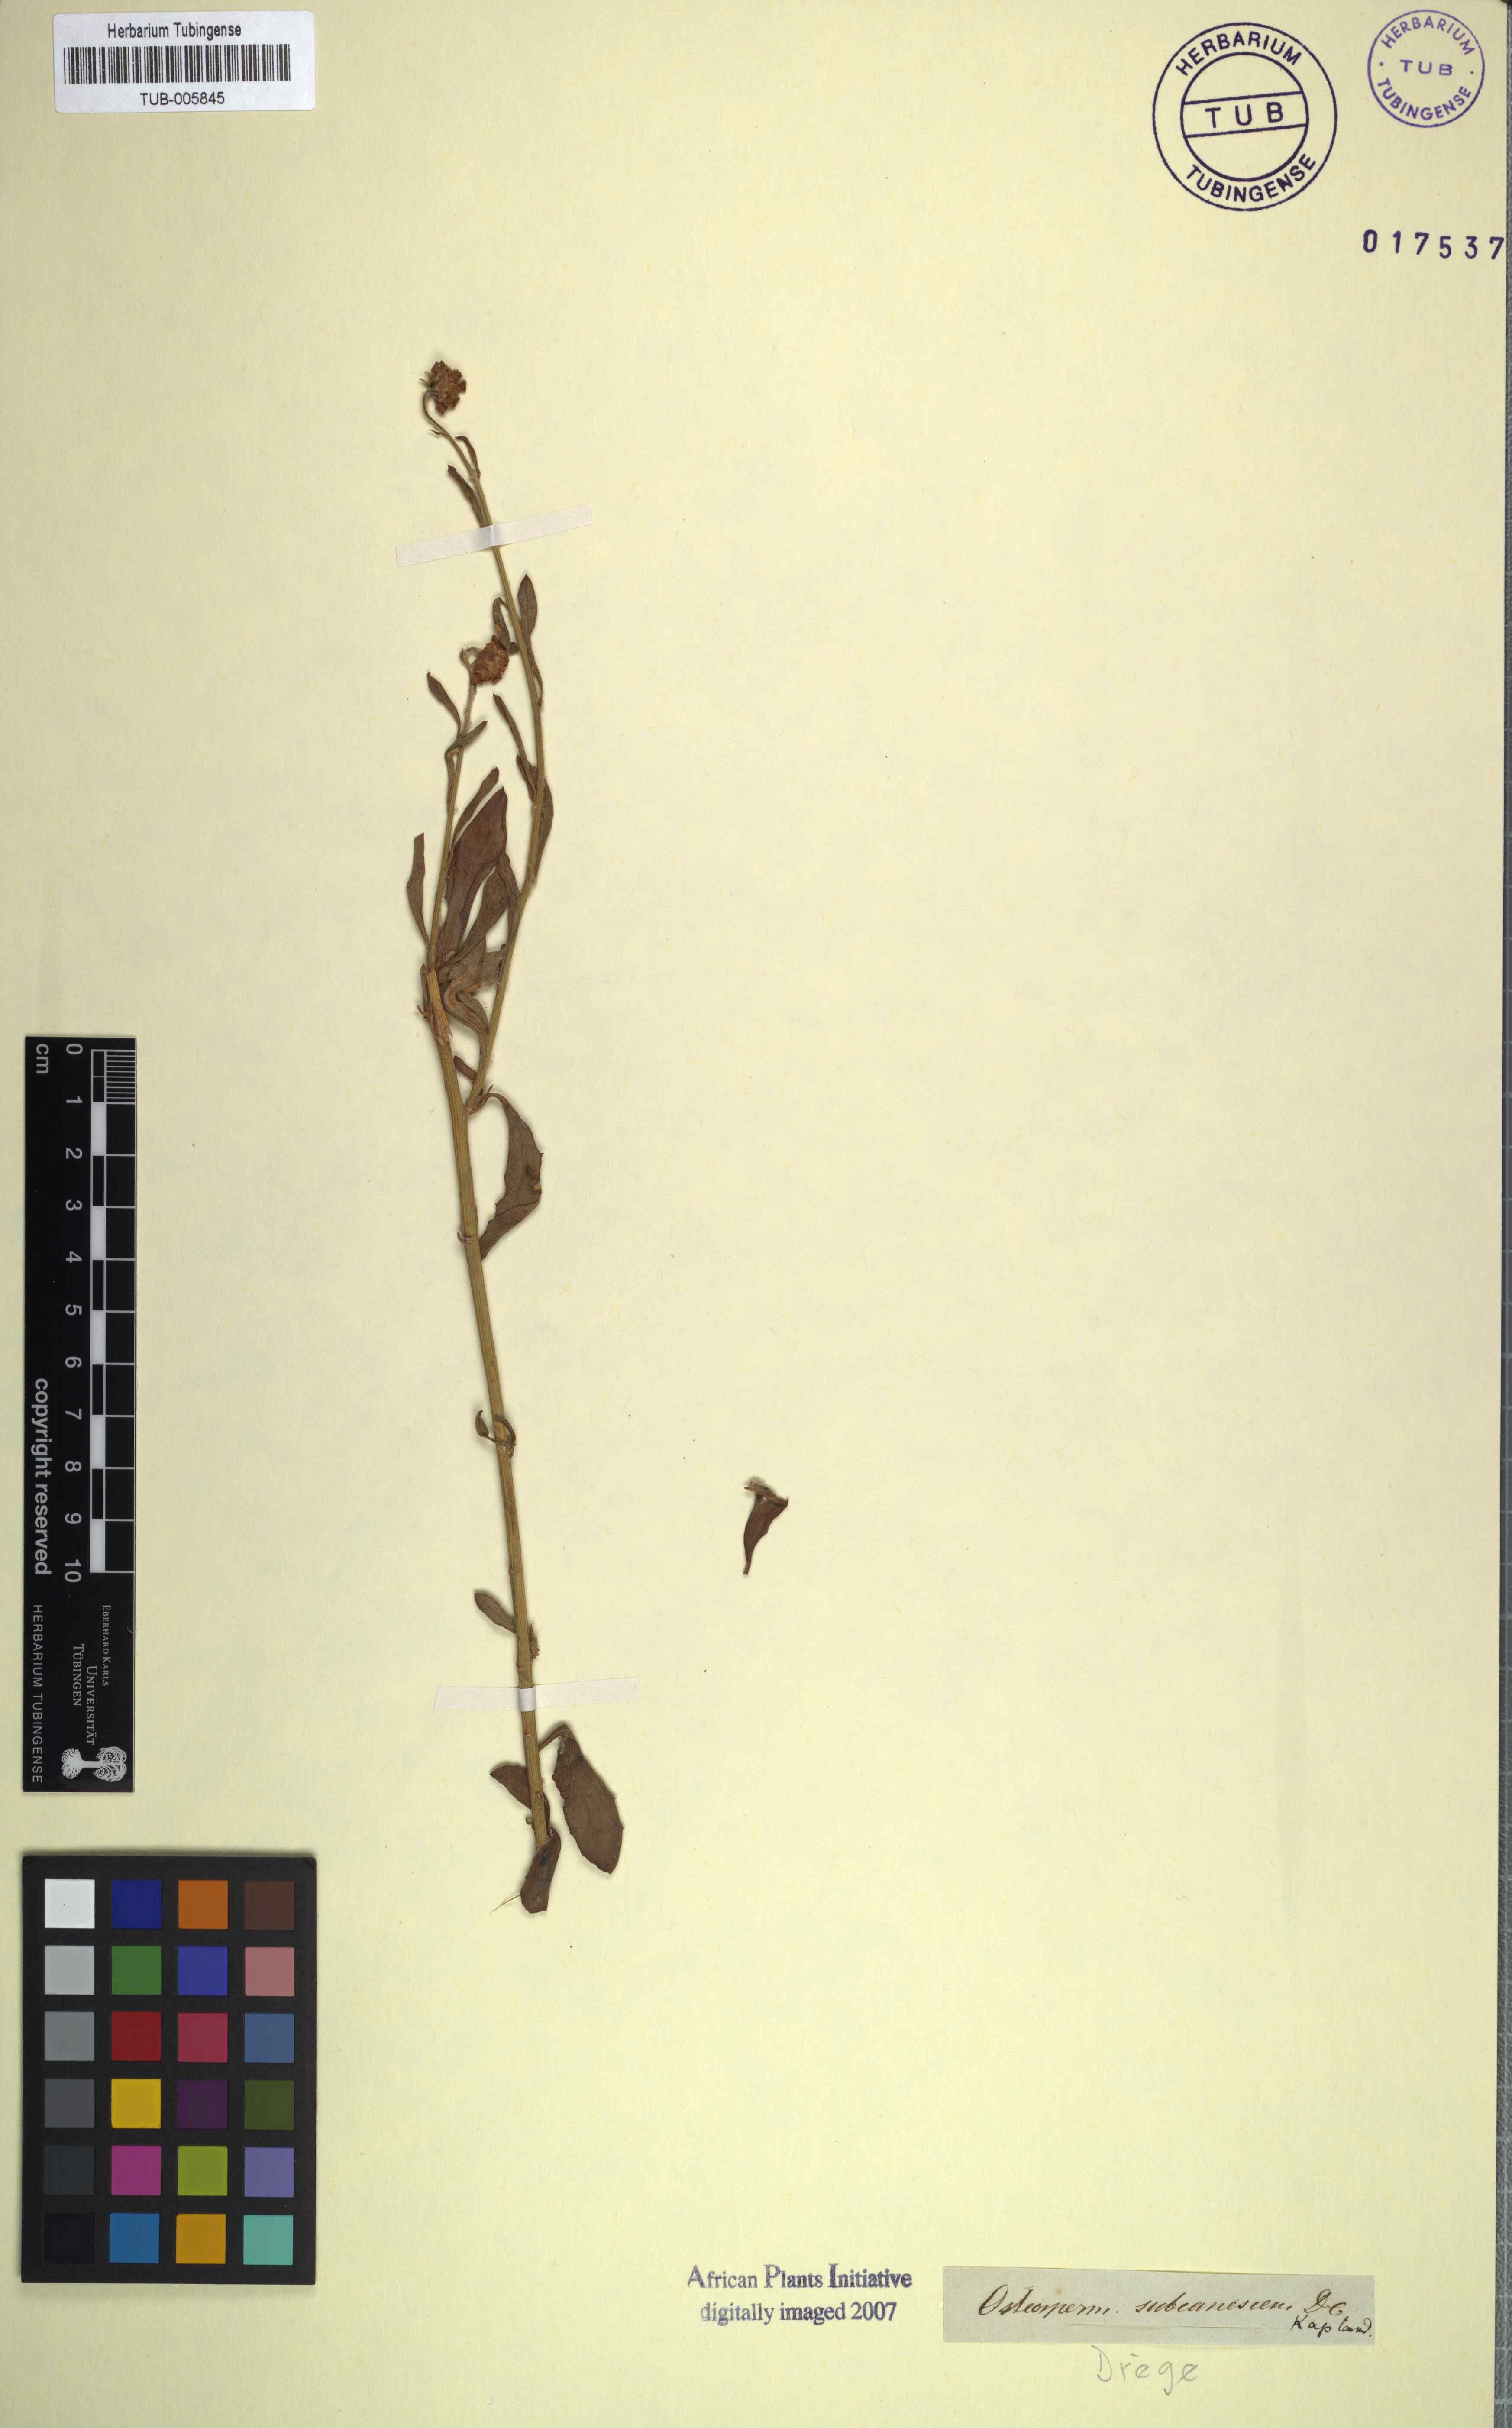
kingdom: Plantae
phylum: Tracheophyta
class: Magnoliopsida
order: Malpighiales
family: Malpighiaceae
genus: Tripteris
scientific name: Tripteris
